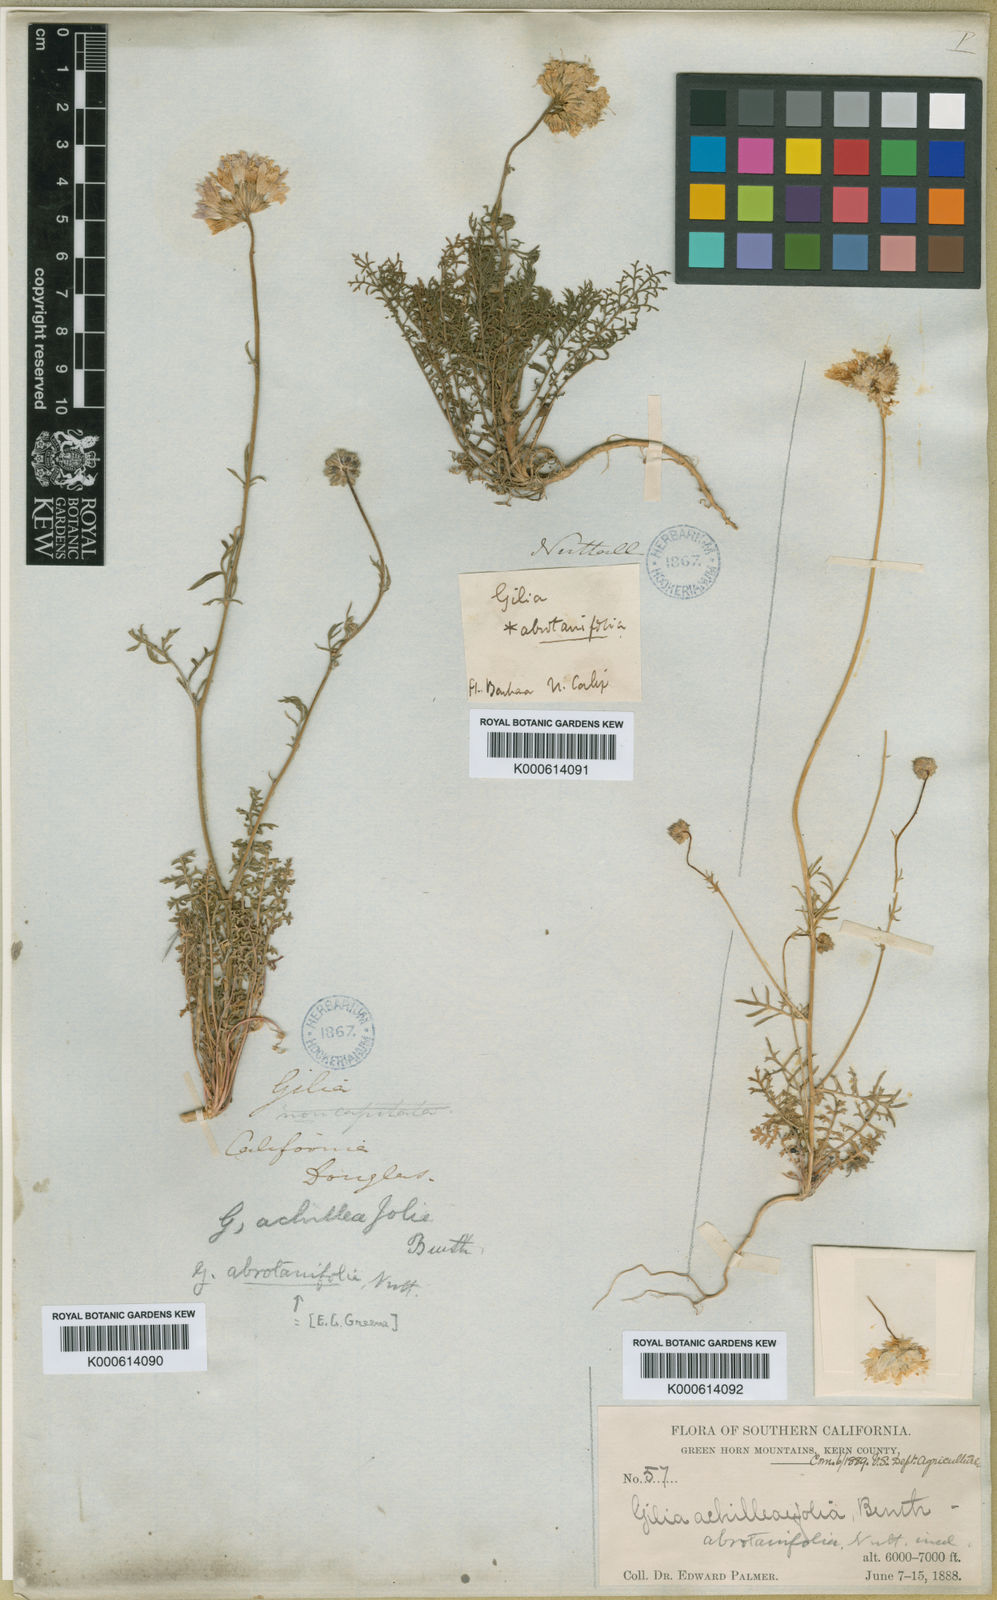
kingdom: Plantae
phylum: Tracheophyta
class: Magnoliopsida
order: Ericales
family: Polemoniaceae
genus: Gilia
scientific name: Gilia achilleifolia
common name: California gily-flower
